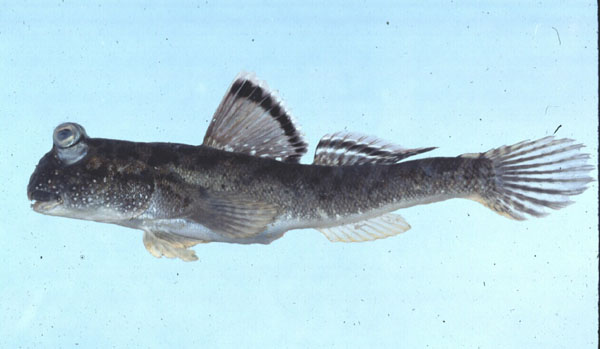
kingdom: Animalia
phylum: Chordata
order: Perciformes
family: Gobiidae
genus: Periophthalmus
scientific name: Periophthalmus argentilineatus
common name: Barred mudskipper
